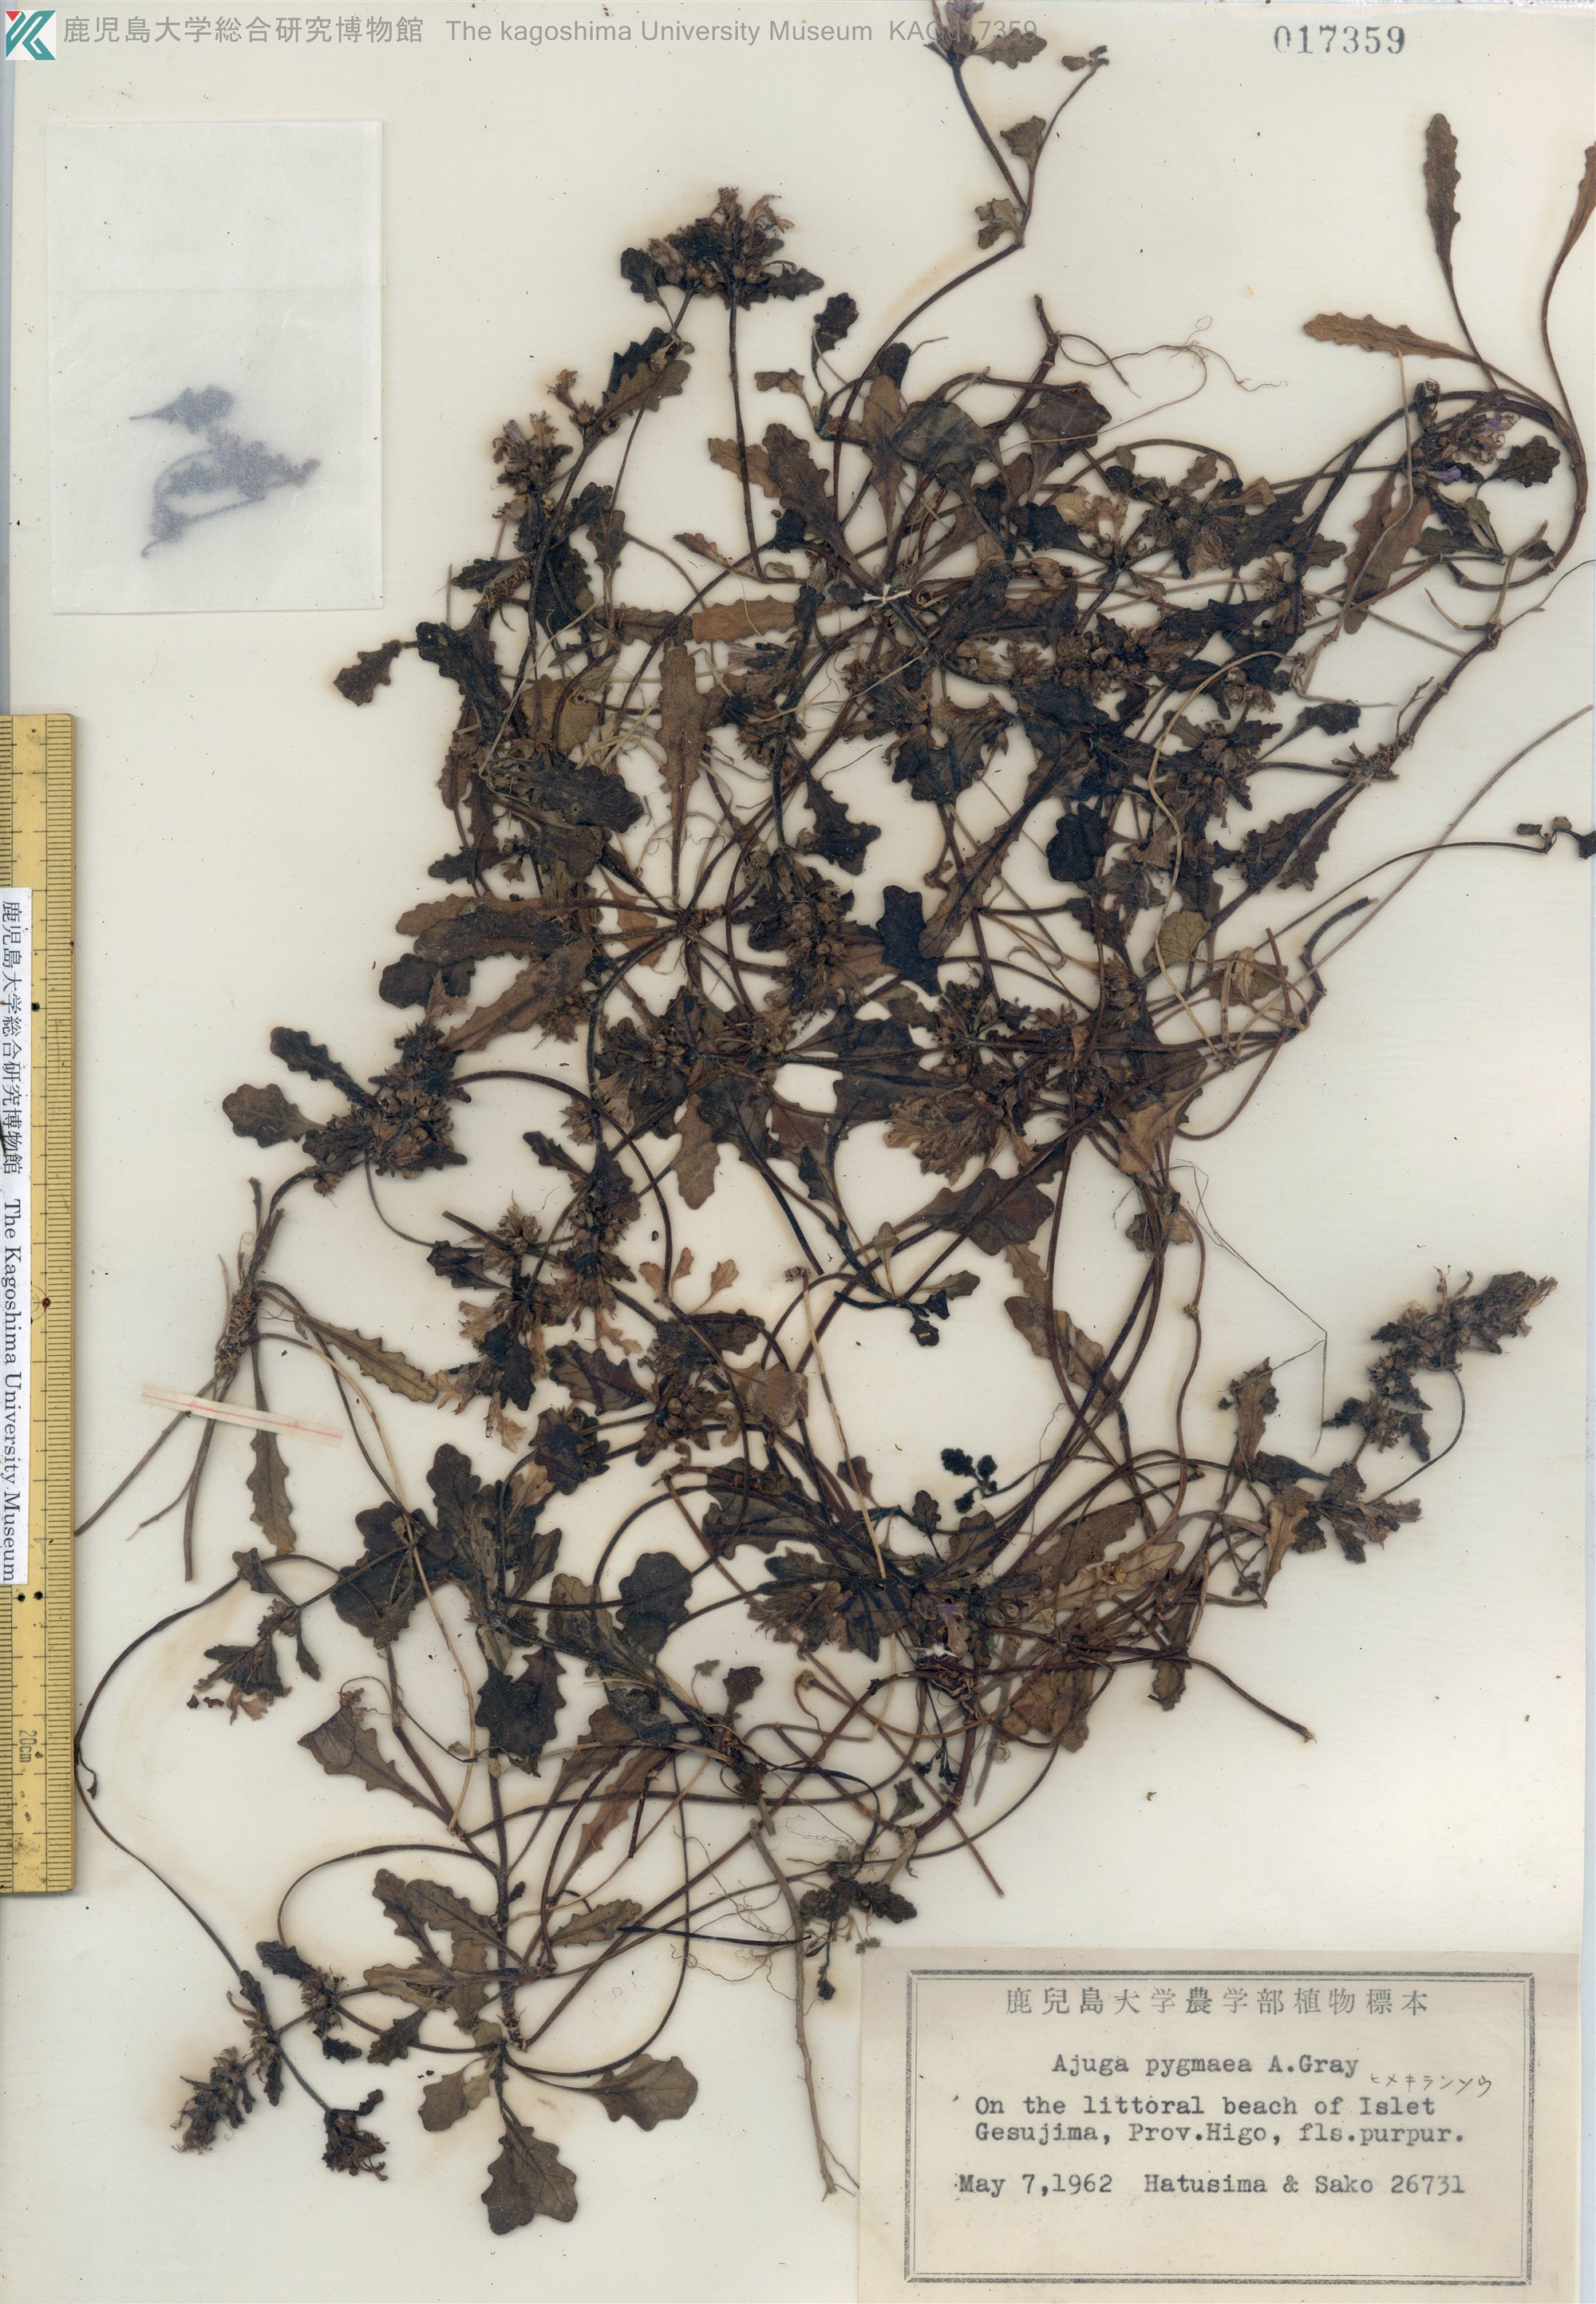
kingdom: Plantae
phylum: Tracheophyta
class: Magnoliopsida
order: Lamiales
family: Lamiaceae
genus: Ajuga
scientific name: Ajuga pygmaea
